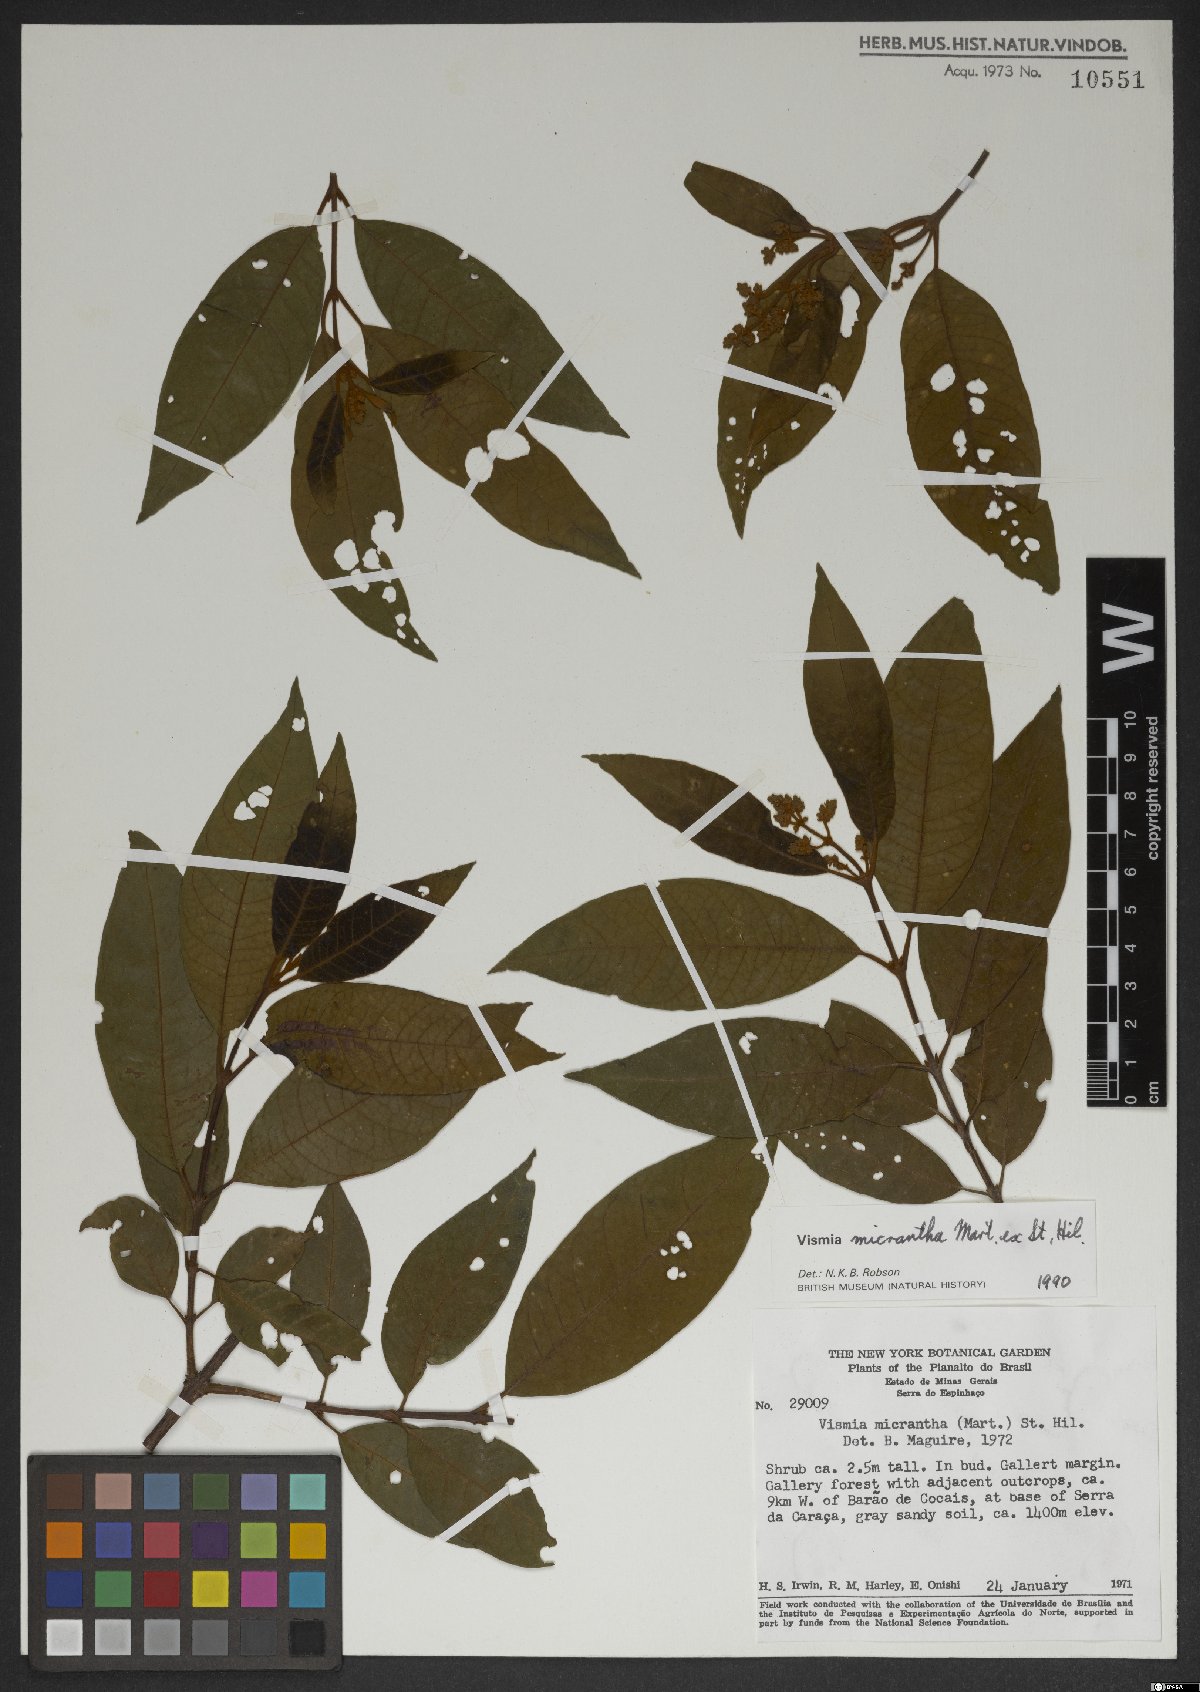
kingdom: Plantae
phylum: Tracheophyta
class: Magnoliopsida
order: Malpighiales
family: Hypericaceae
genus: Vismia
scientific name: Vismia micrantha
